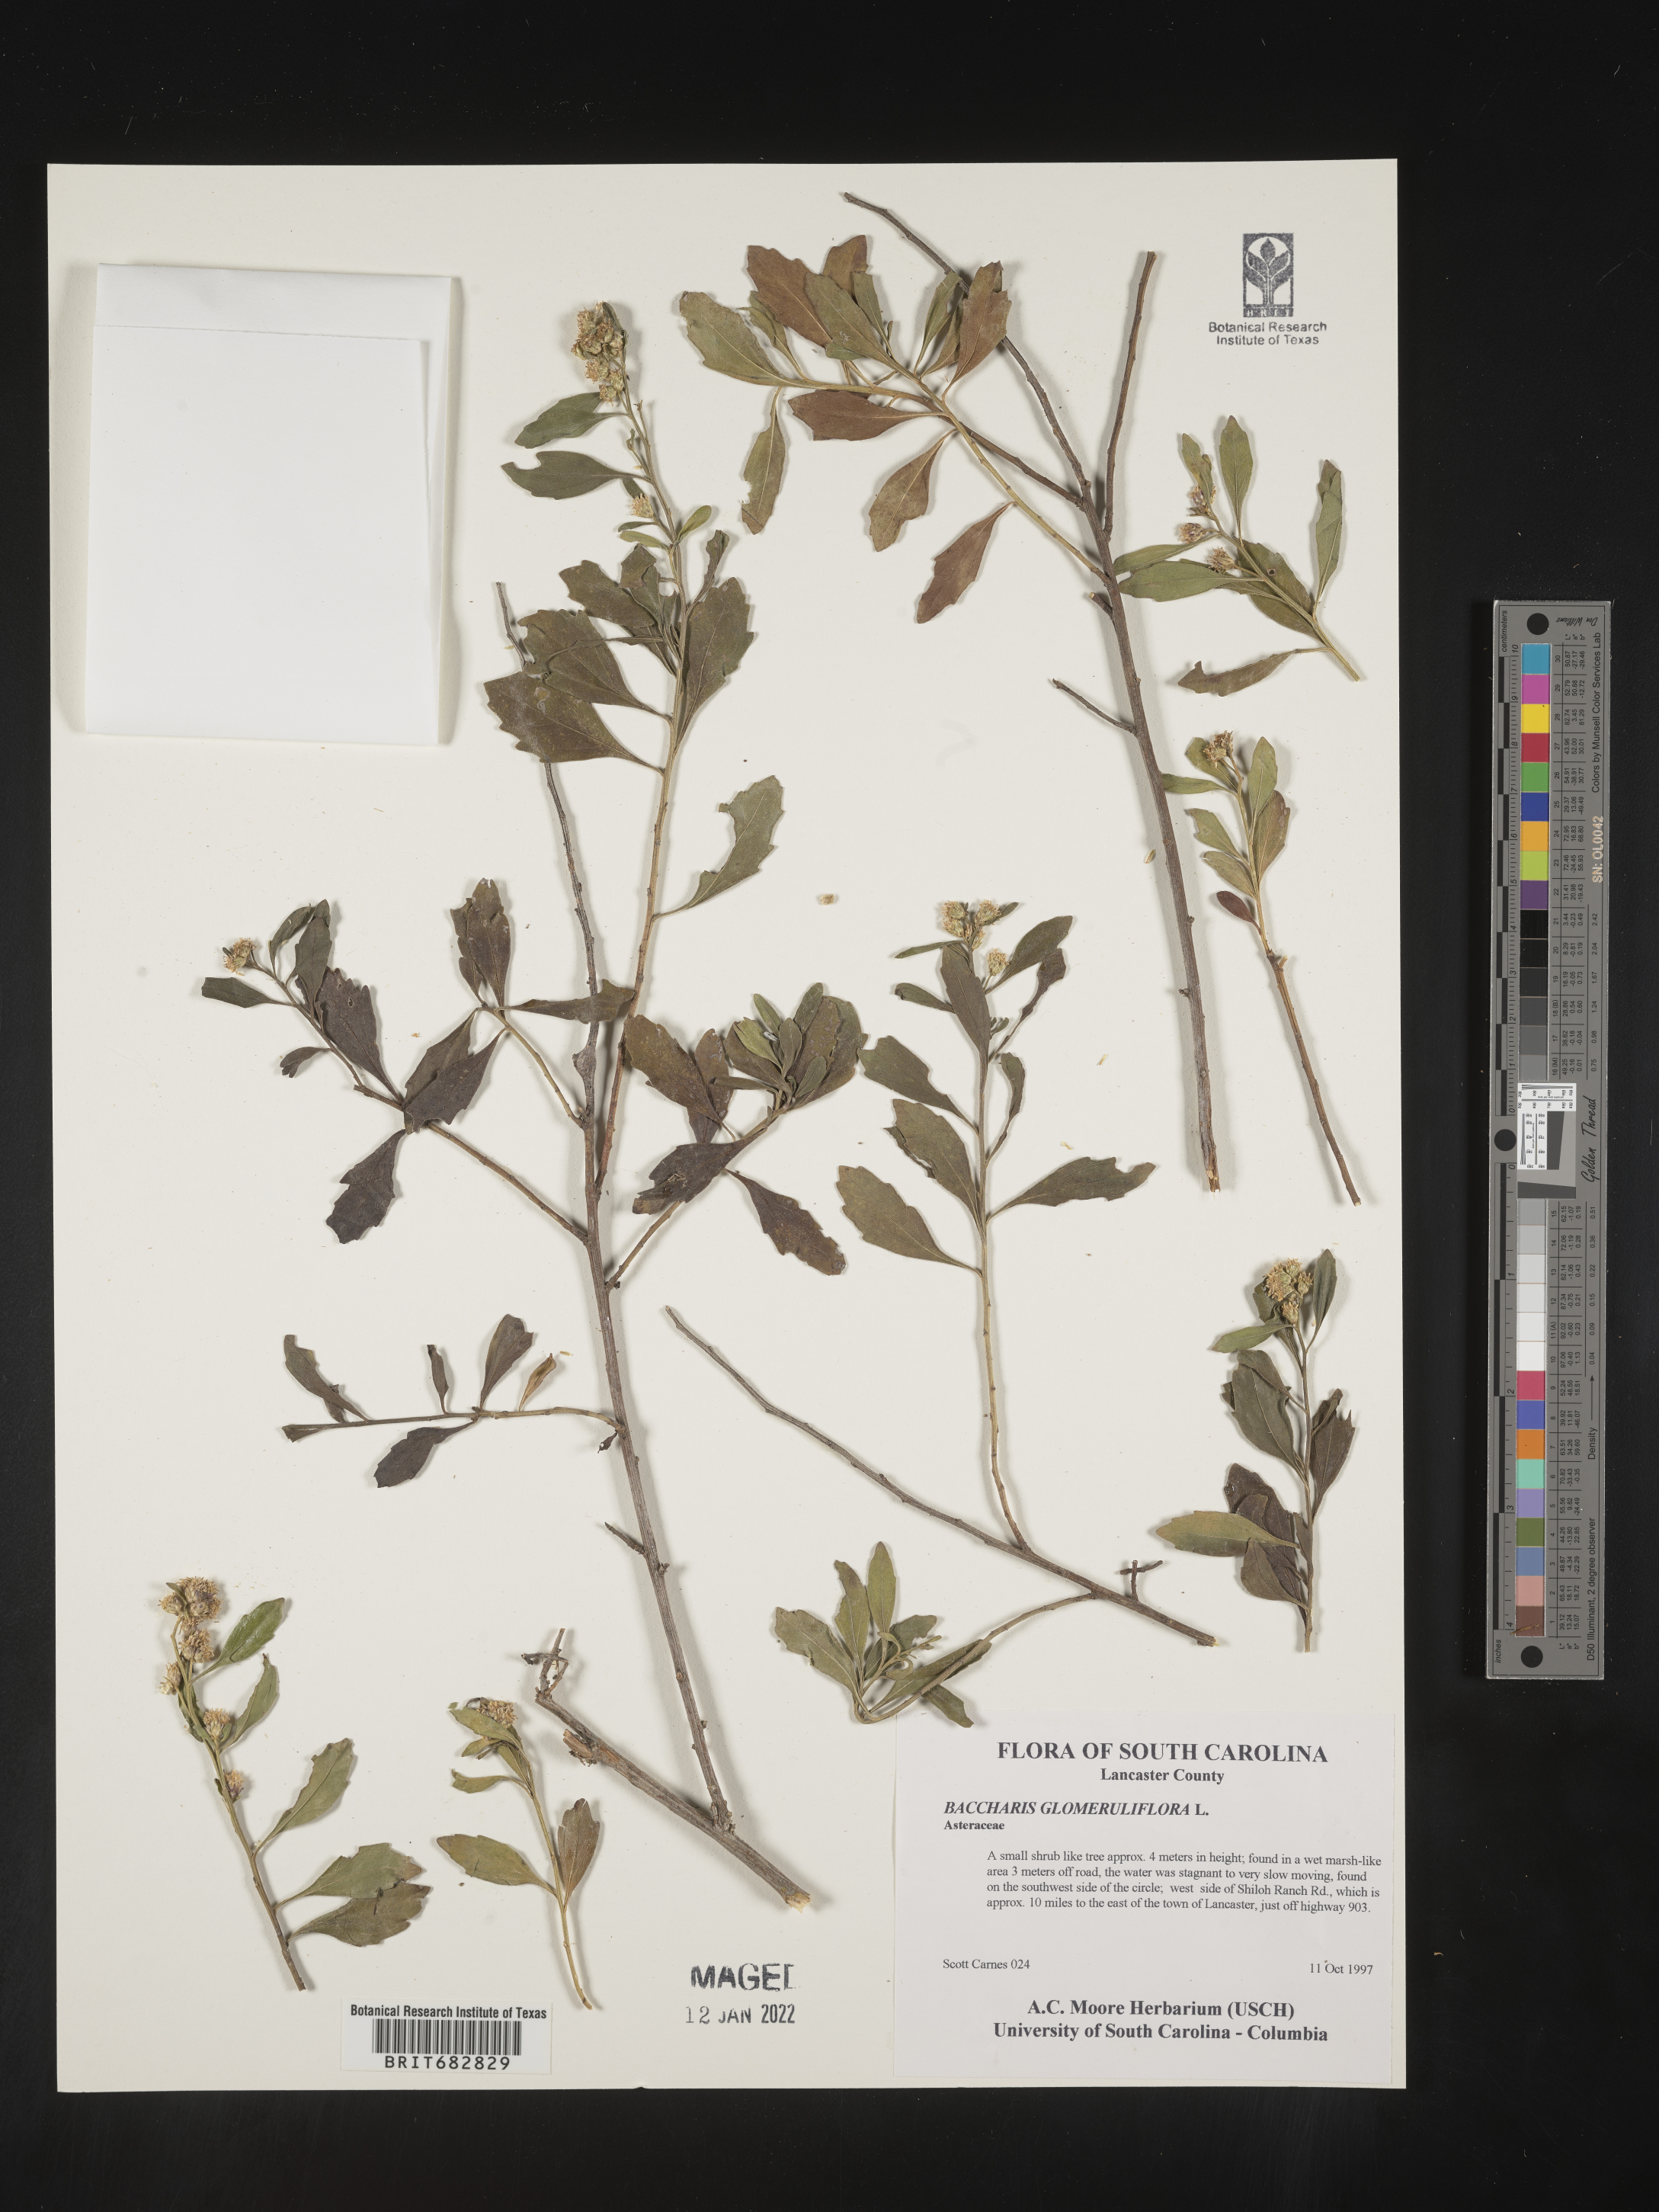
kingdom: Plantae
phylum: Tracheophyta
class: Magnoliopsida
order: Asterales
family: Asteraceae
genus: Baccharis
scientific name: Baccharis glomeruliflora
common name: Silverling groundsel bush
